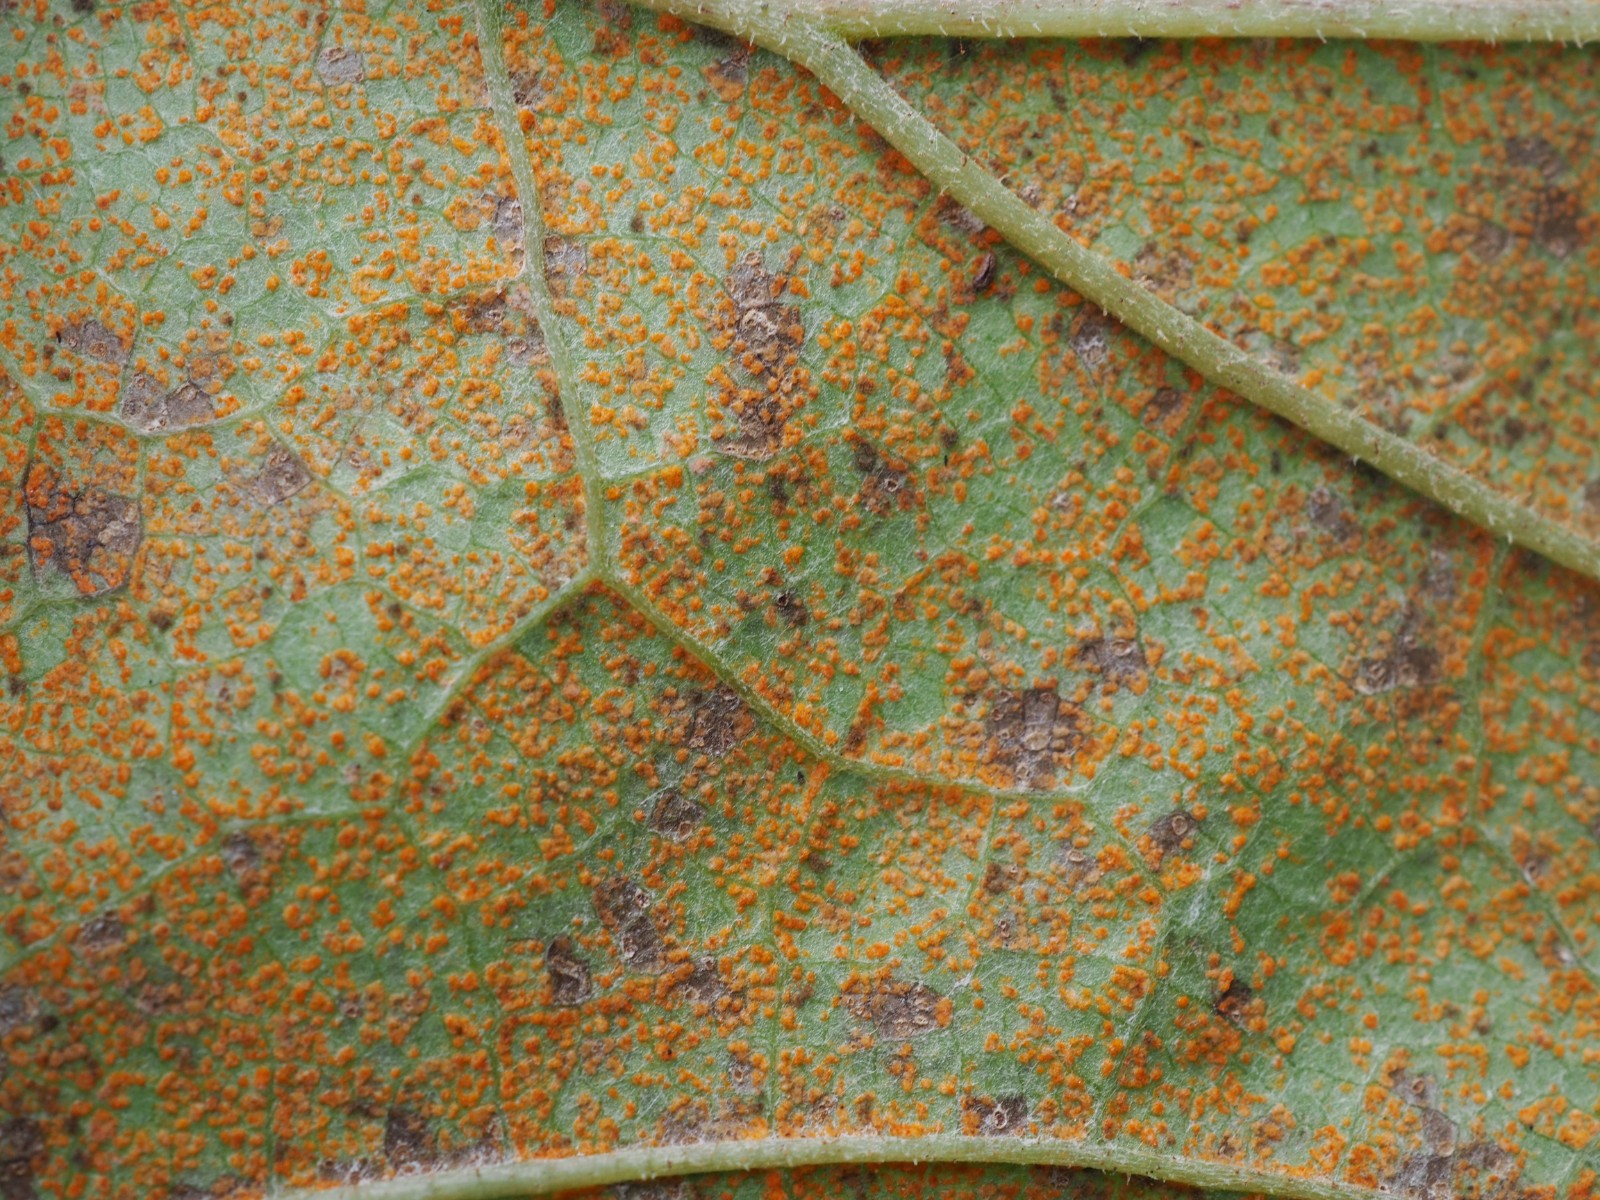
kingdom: Fungi
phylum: Basidiomycota
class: Pucciniomycetes
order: Pucciniales
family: Coleosporiaceae
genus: Coleosporium
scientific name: Coleosporium tussilaginis
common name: almindelig fyrrenålerust
